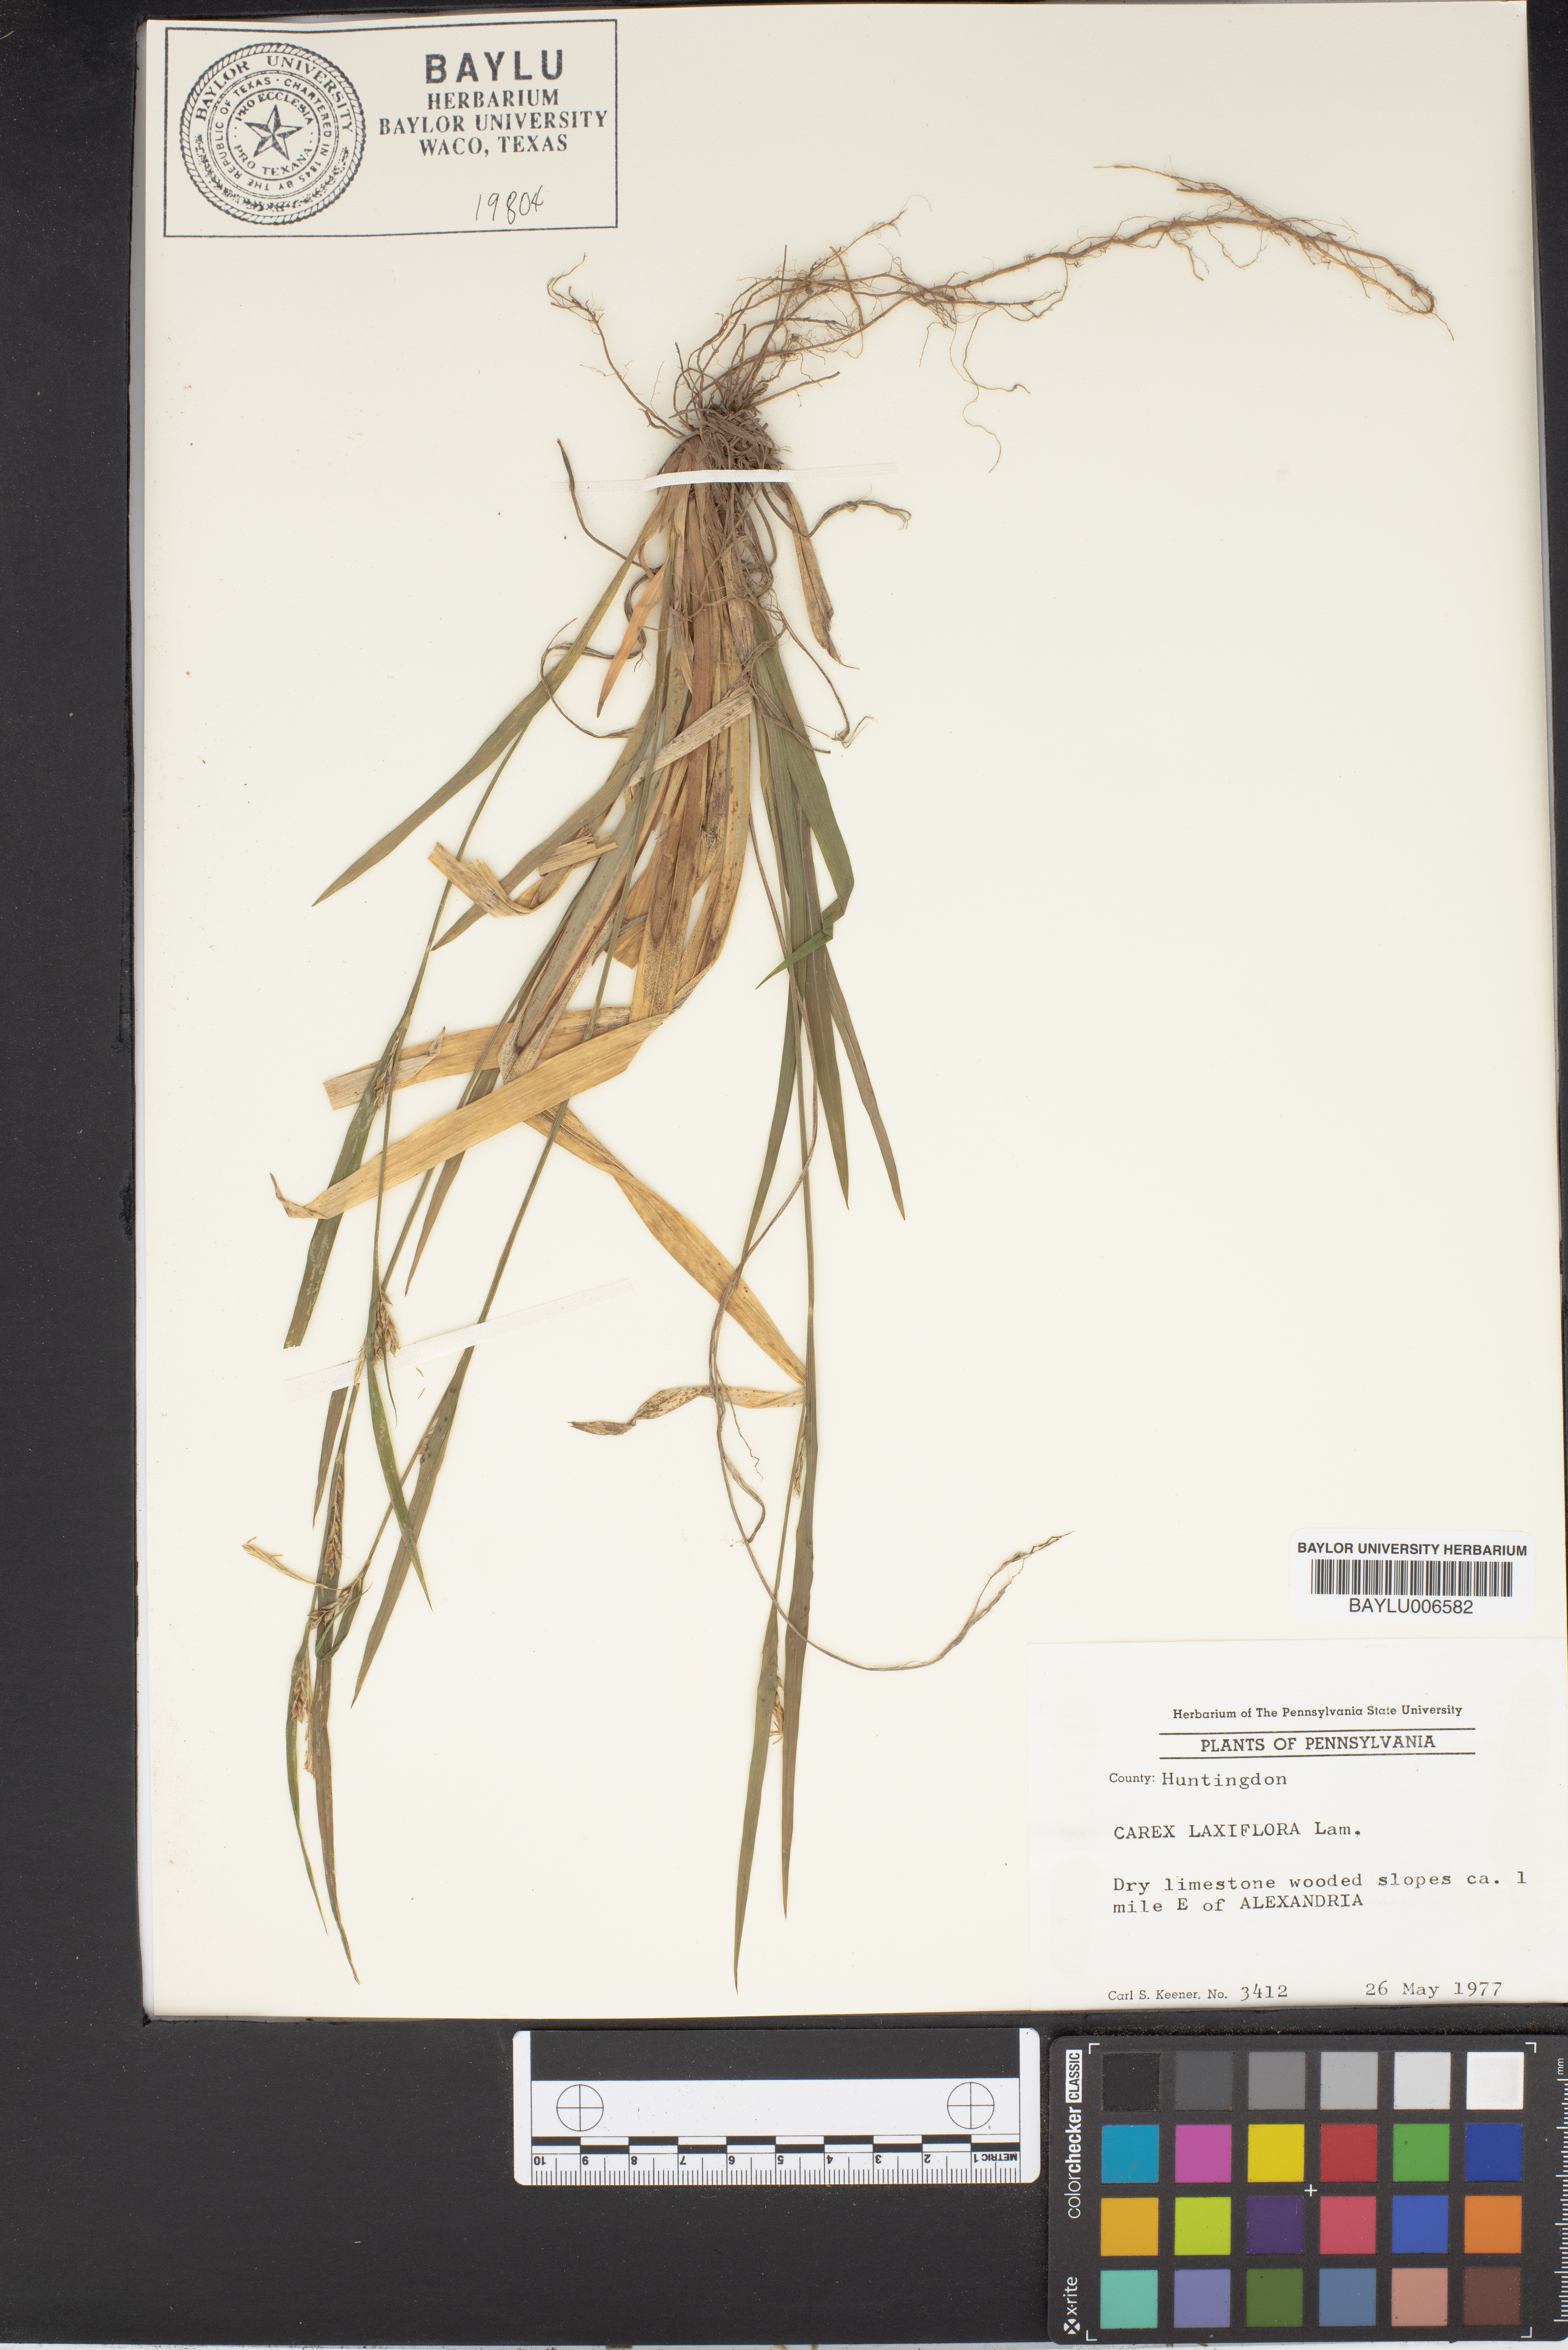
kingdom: Plantae
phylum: Tracheophyta
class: Liliopsida
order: Poales
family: Cyperaceae
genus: Carex
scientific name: Carex laxiflora
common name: Beech wood sedge
